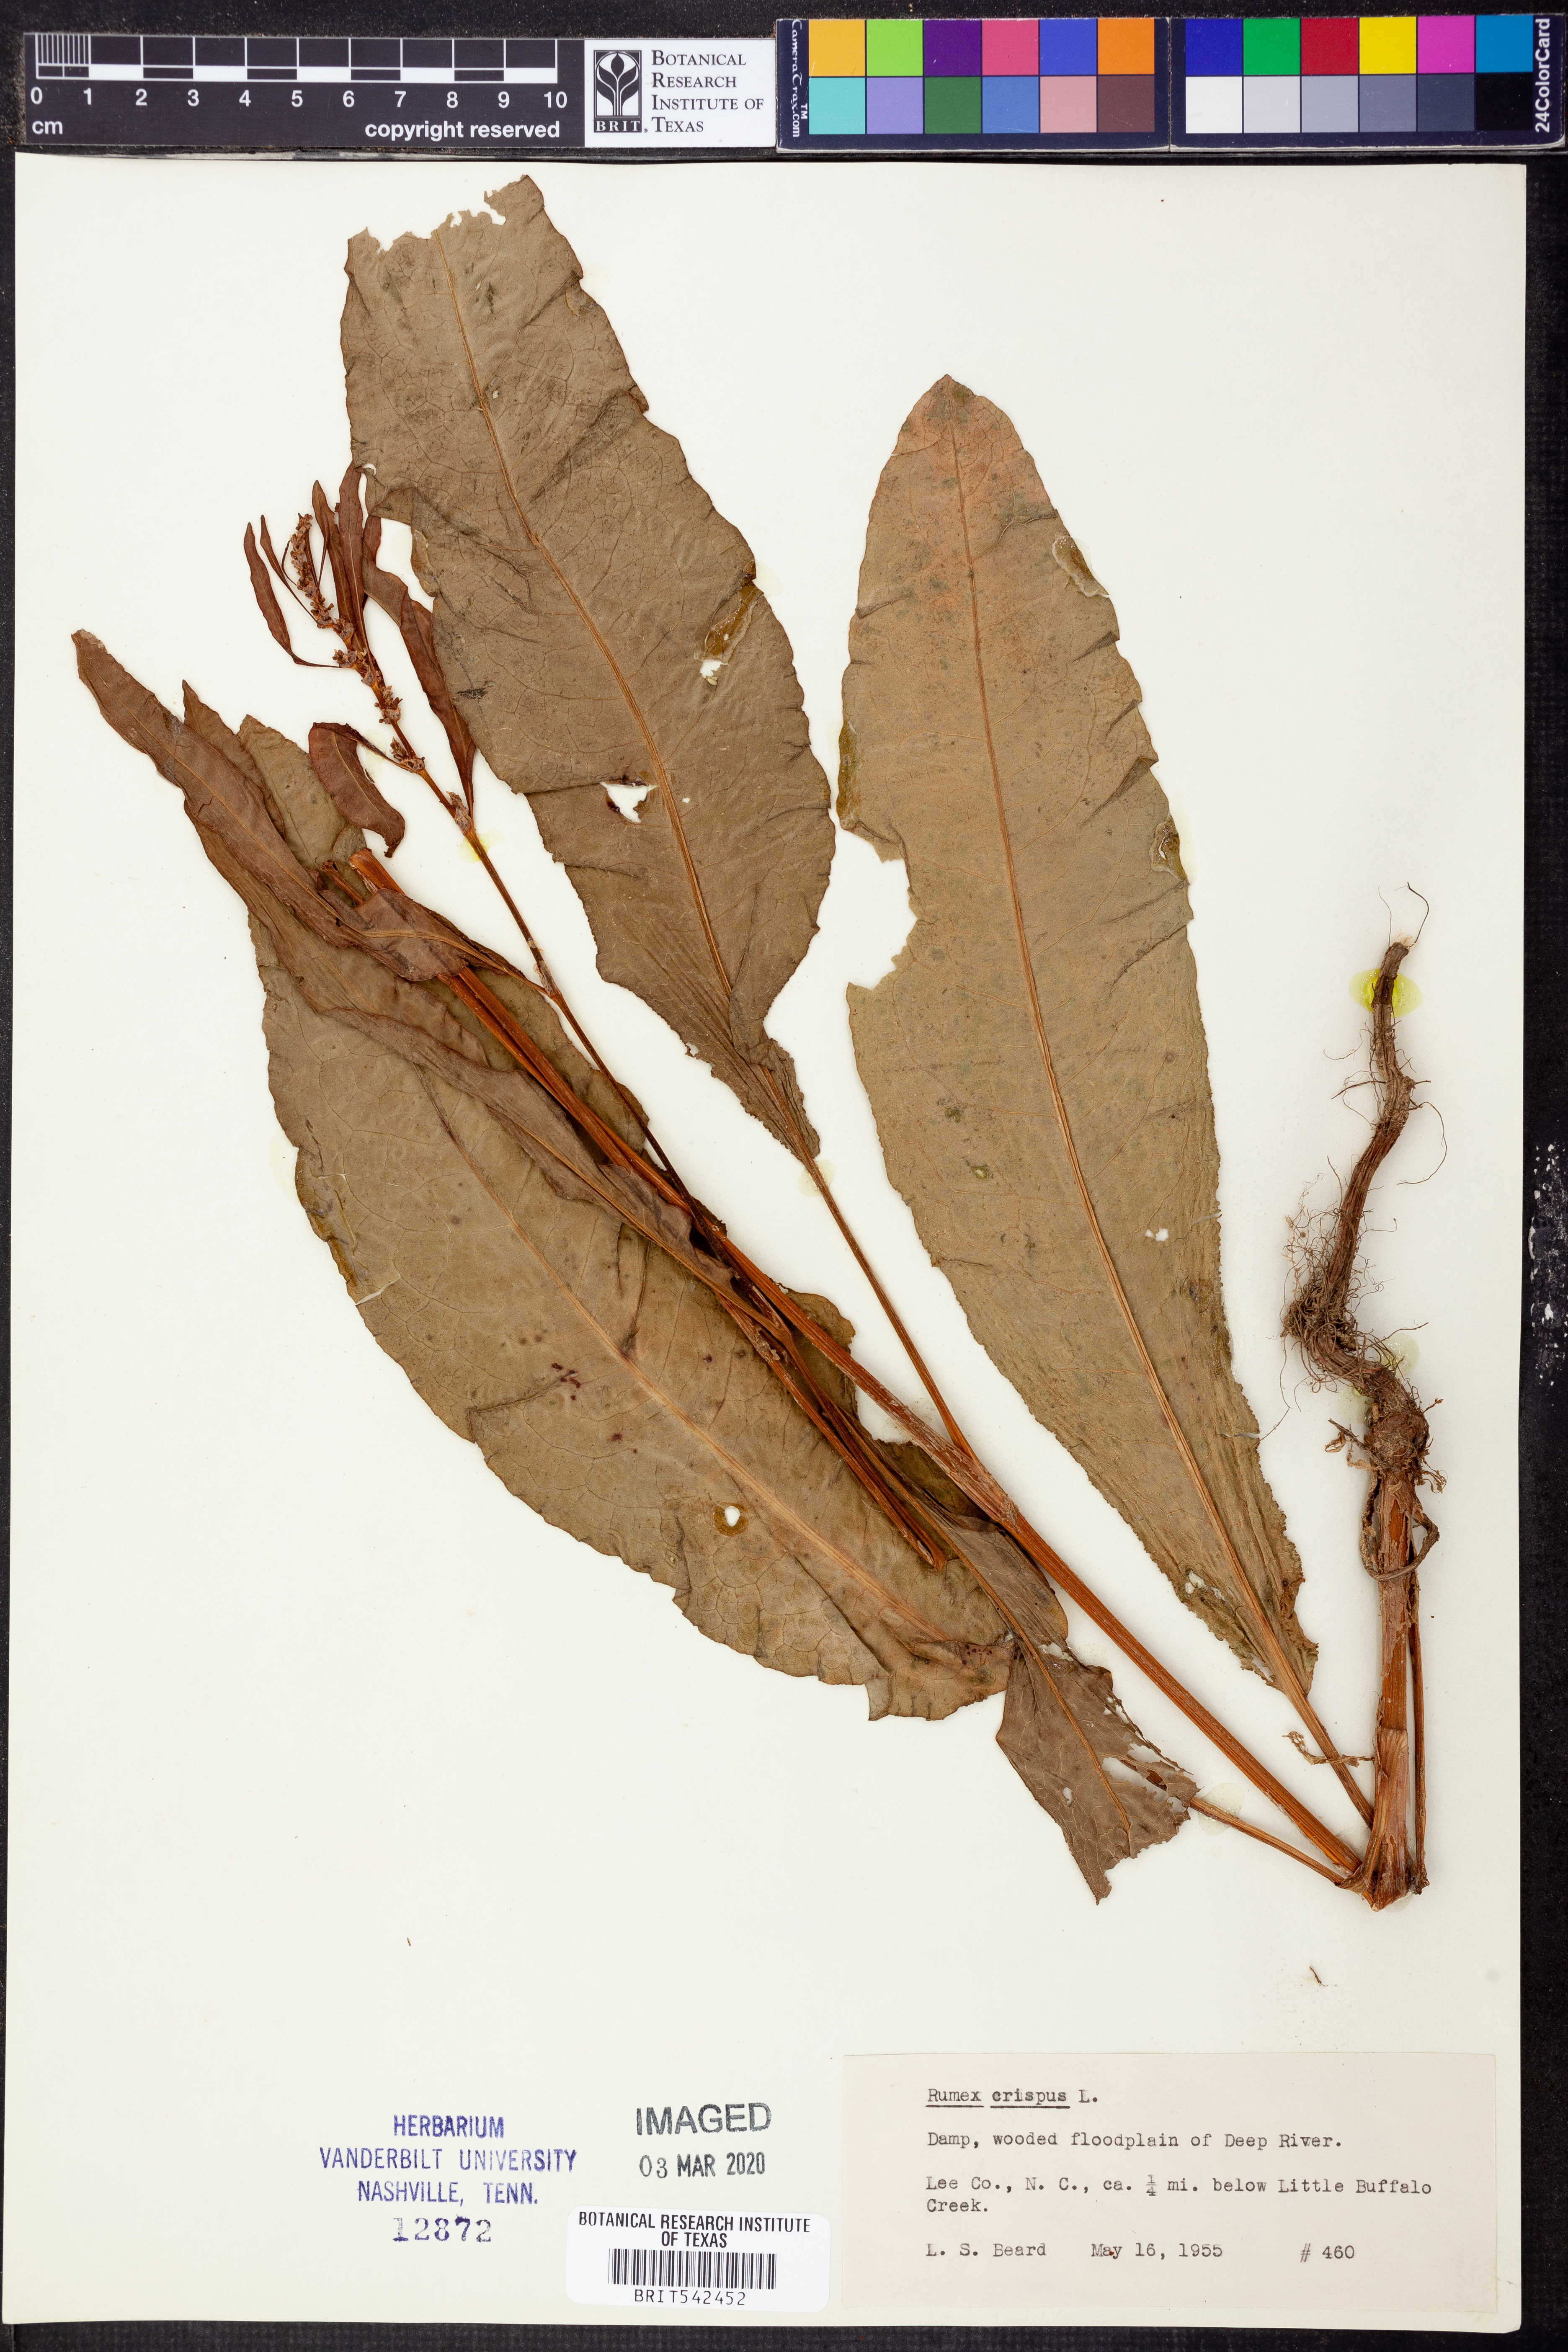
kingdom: Plantae
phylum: Tracheophyta
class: Magnoliopsida
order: Caryophyllales
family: Polygonaceae
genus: Rumex
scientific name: Rumex crispus
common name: Curled dock
